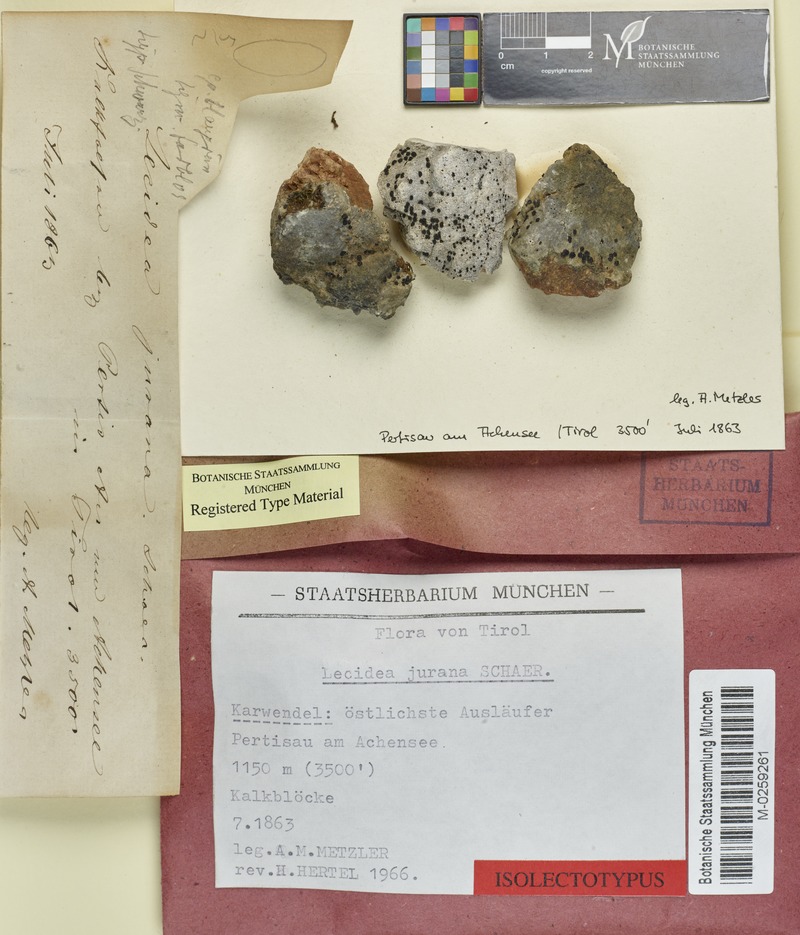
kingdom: Fungi
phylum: Ascomycota
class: Lecanoromycetes
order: Lecideales
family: Lecideaceae
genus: Farnoldia
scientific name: Farnoldia jurana
